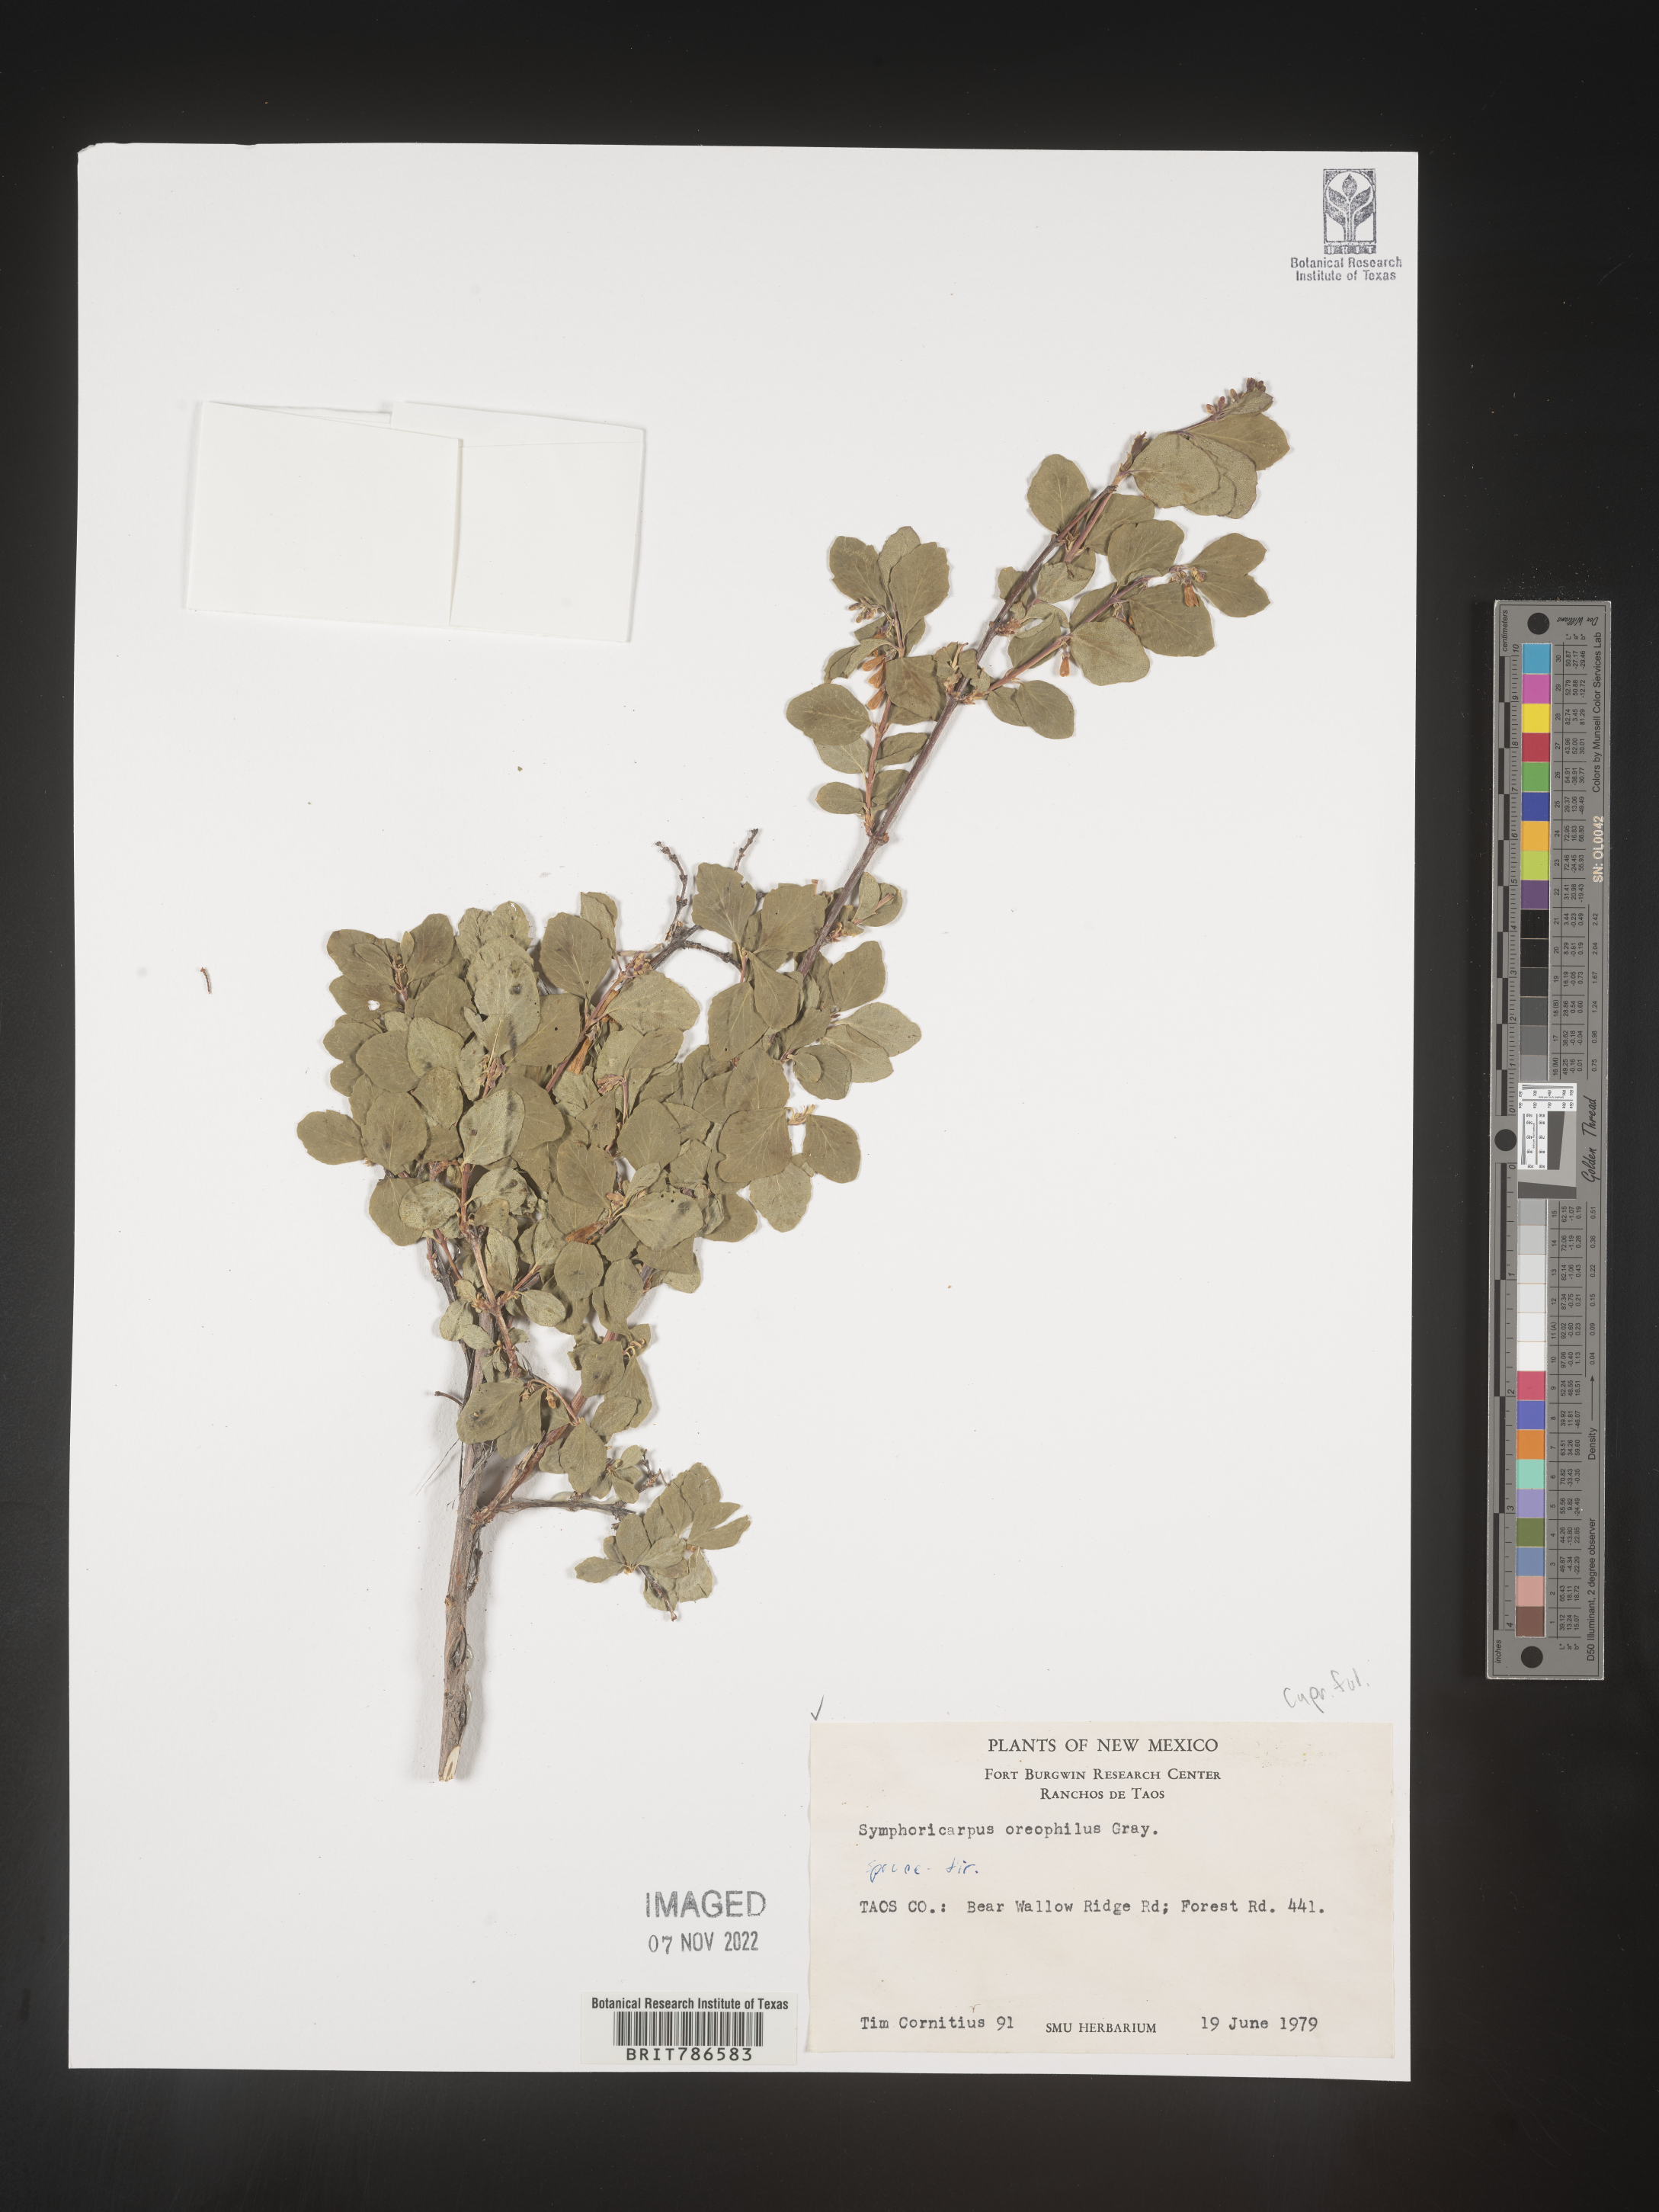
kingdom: Plantae
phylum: Tracheophyta
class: Magnoliopsida
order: Dipsacales
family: Caprifoliaceae
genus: Symphoricarpos
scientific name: Symphoricarpos oreophilus
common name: Mountain snowberry
